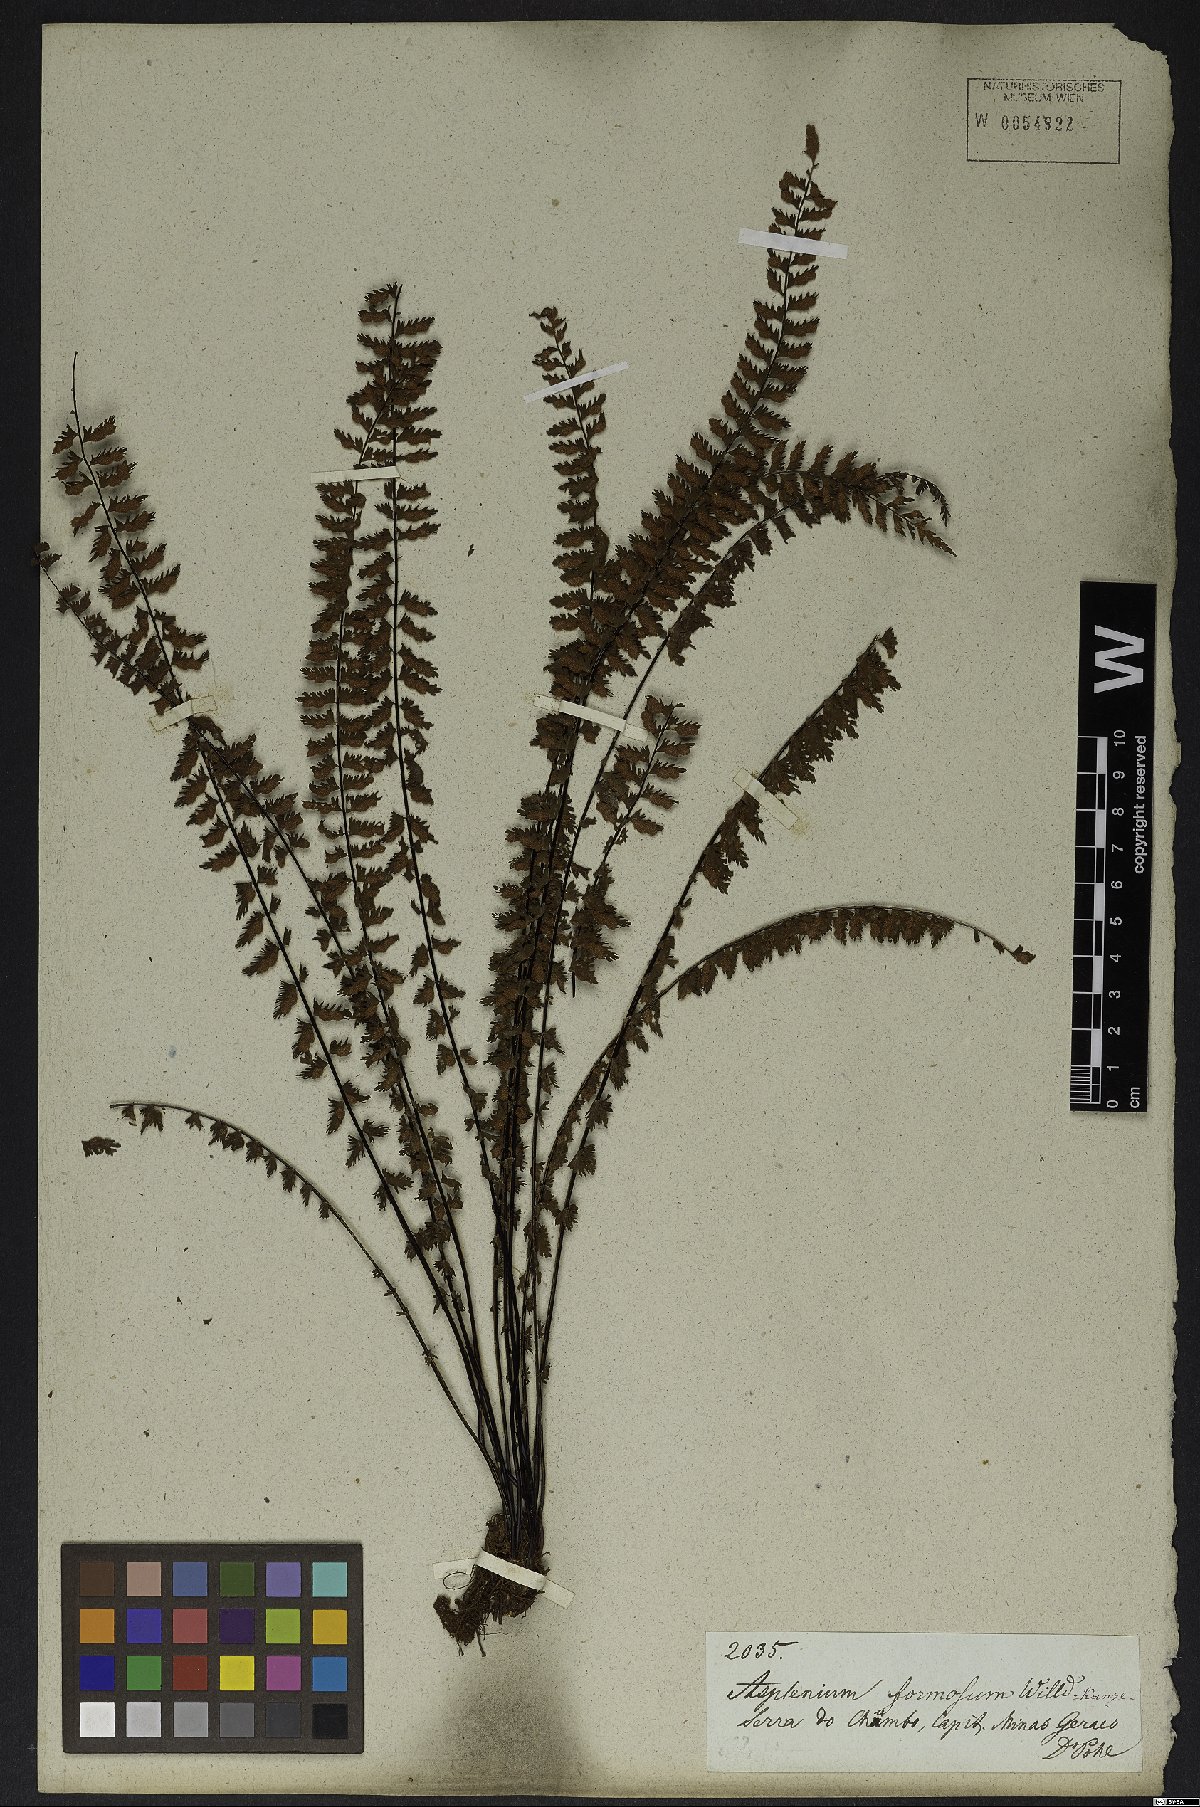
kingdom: Plantae
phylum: Tracheophyta
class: Polypodiopsida
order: Polypodiales
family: Aspleniaceae
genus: Asplenium
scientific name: Asplenium formosum
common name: Showy spleenwort
